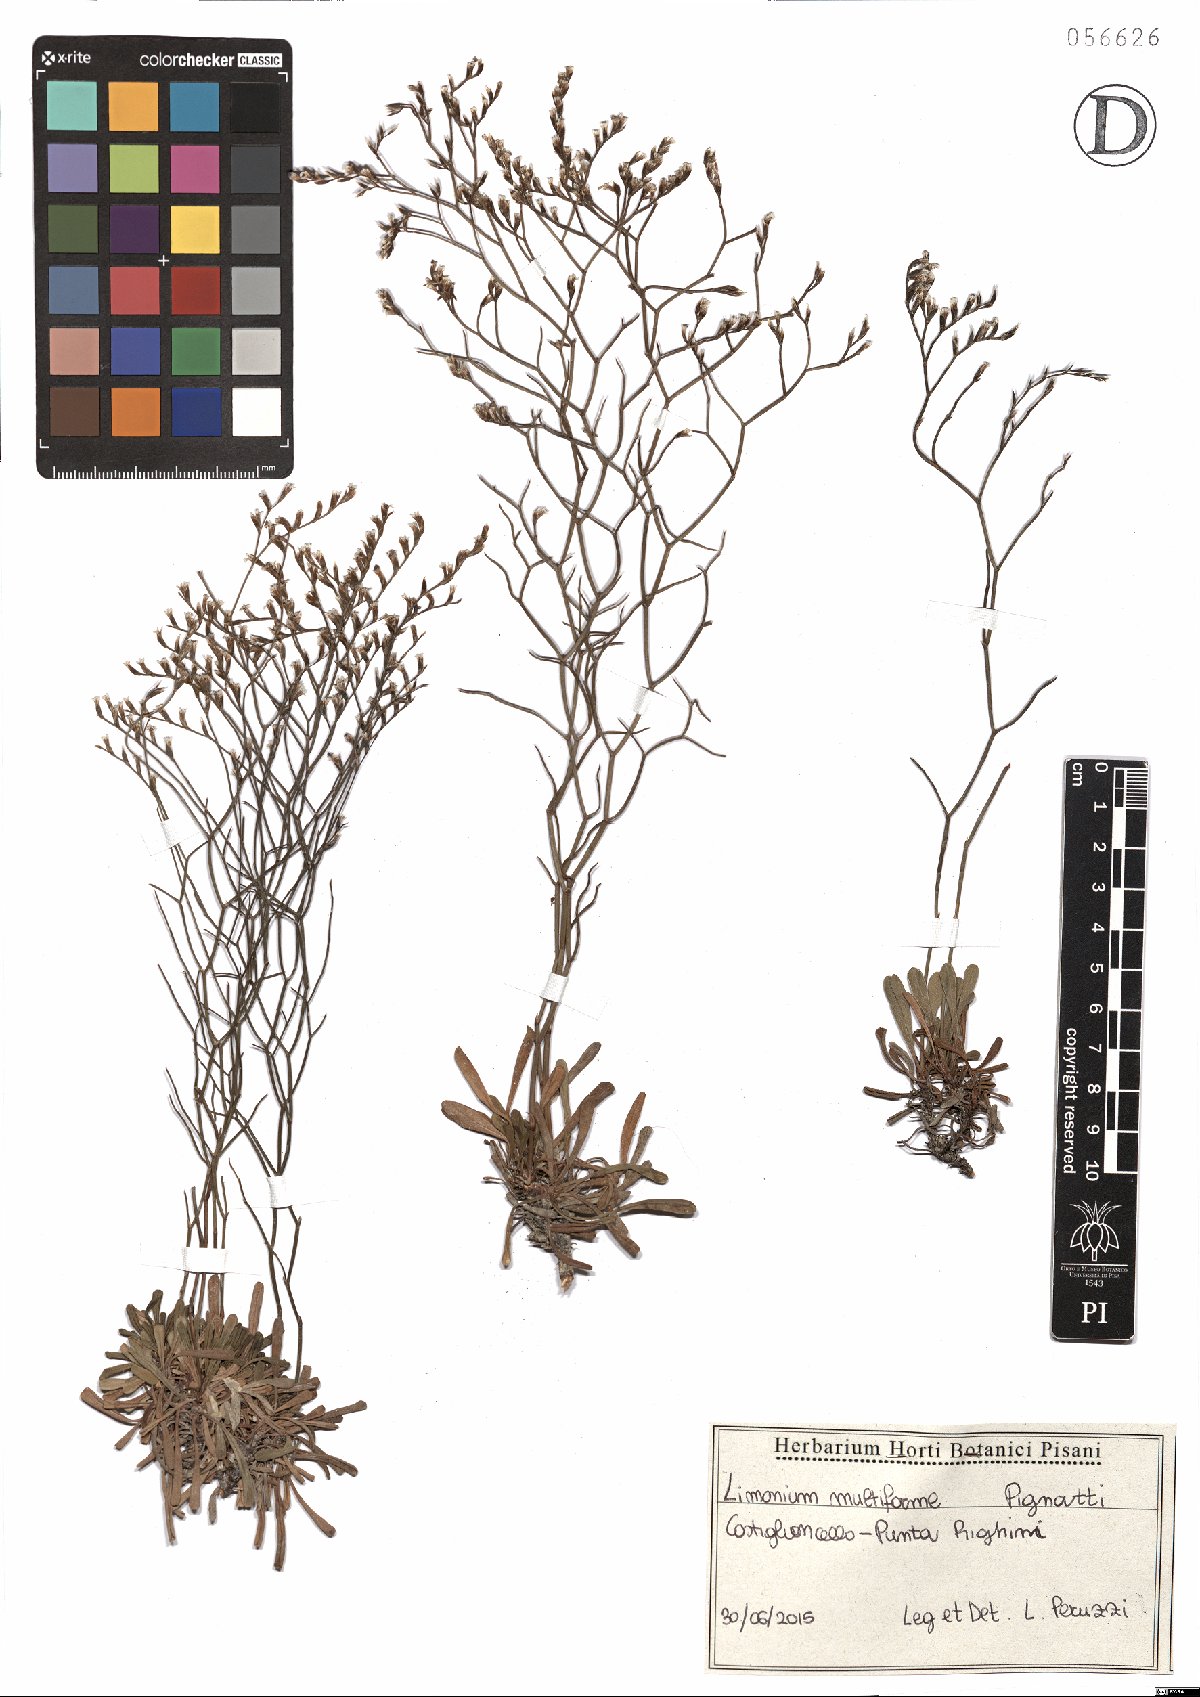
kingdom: Plantae
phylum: Tracheophyta
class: Magnoliopsida
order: Caryophyllales
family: Plumbaginaceae
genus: Limonium
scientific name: Limonium multiforme
